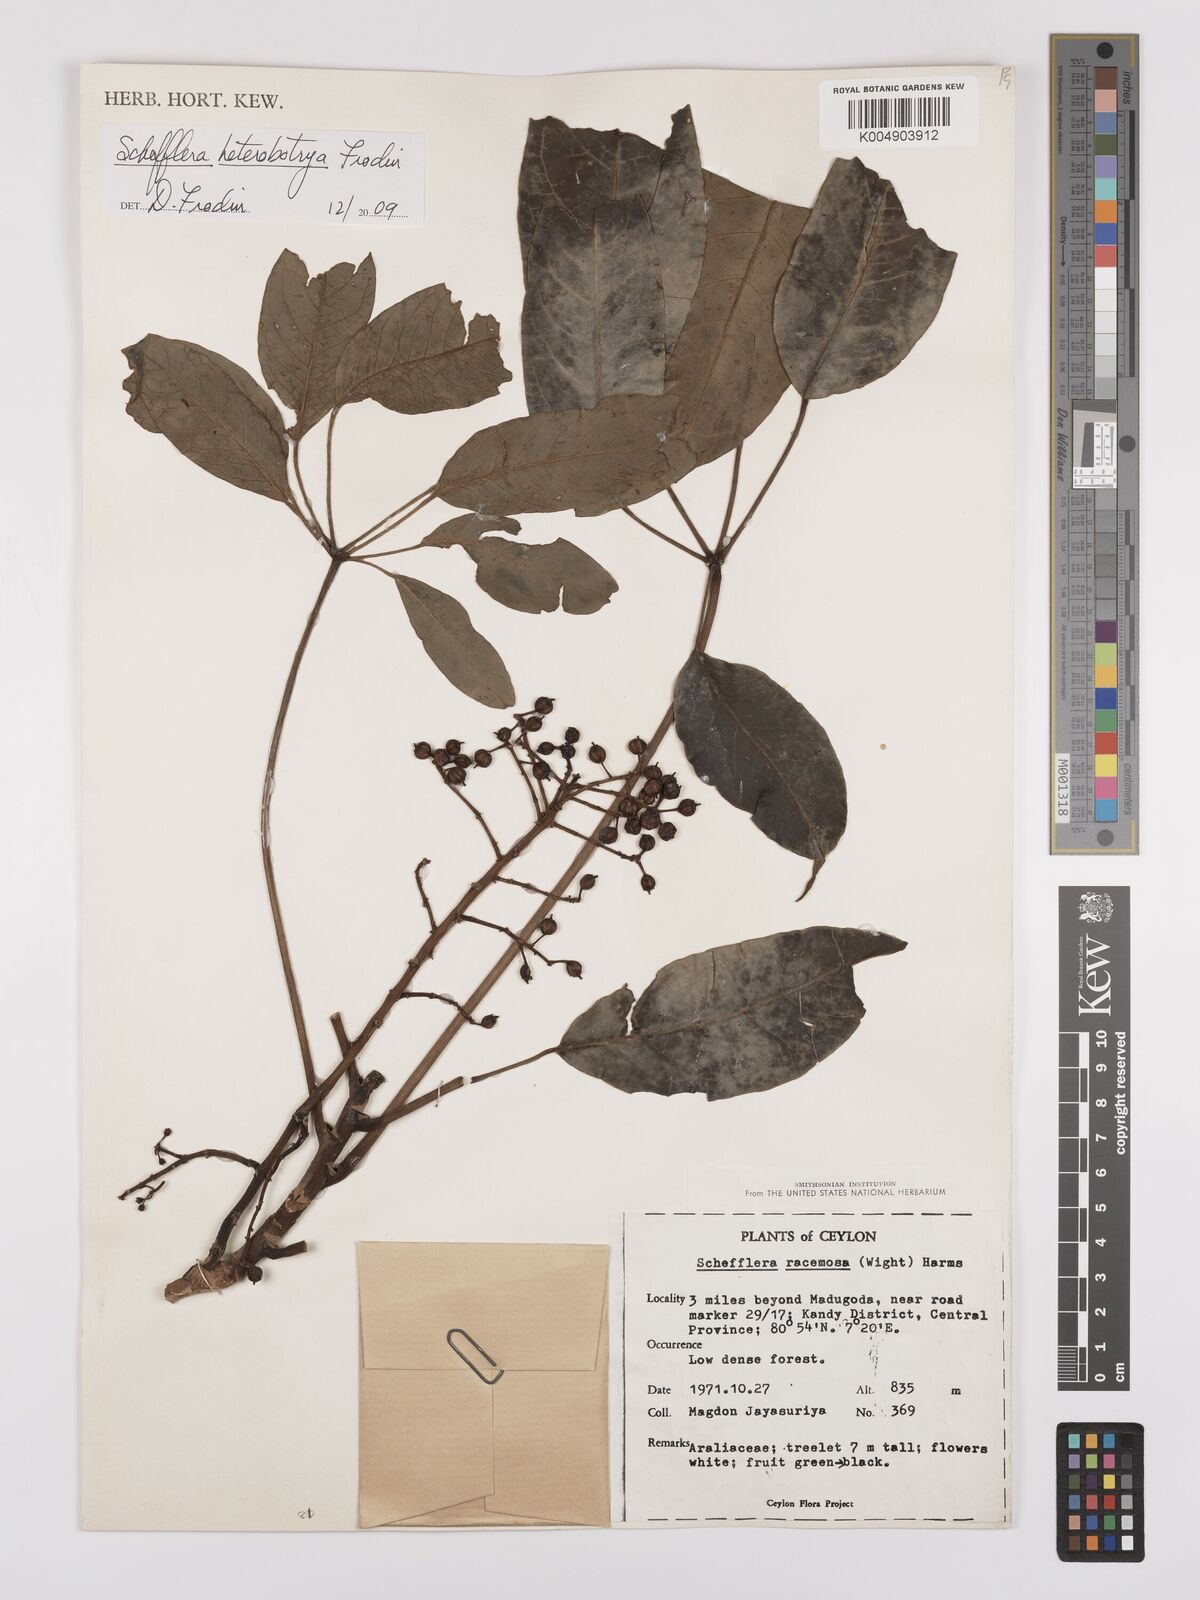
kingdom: Plantae
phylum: Tracheophyta
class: Magnoliopsida
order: Apiales
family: Araliaceae
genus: Heptapleurum
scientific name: Heptapleurum
